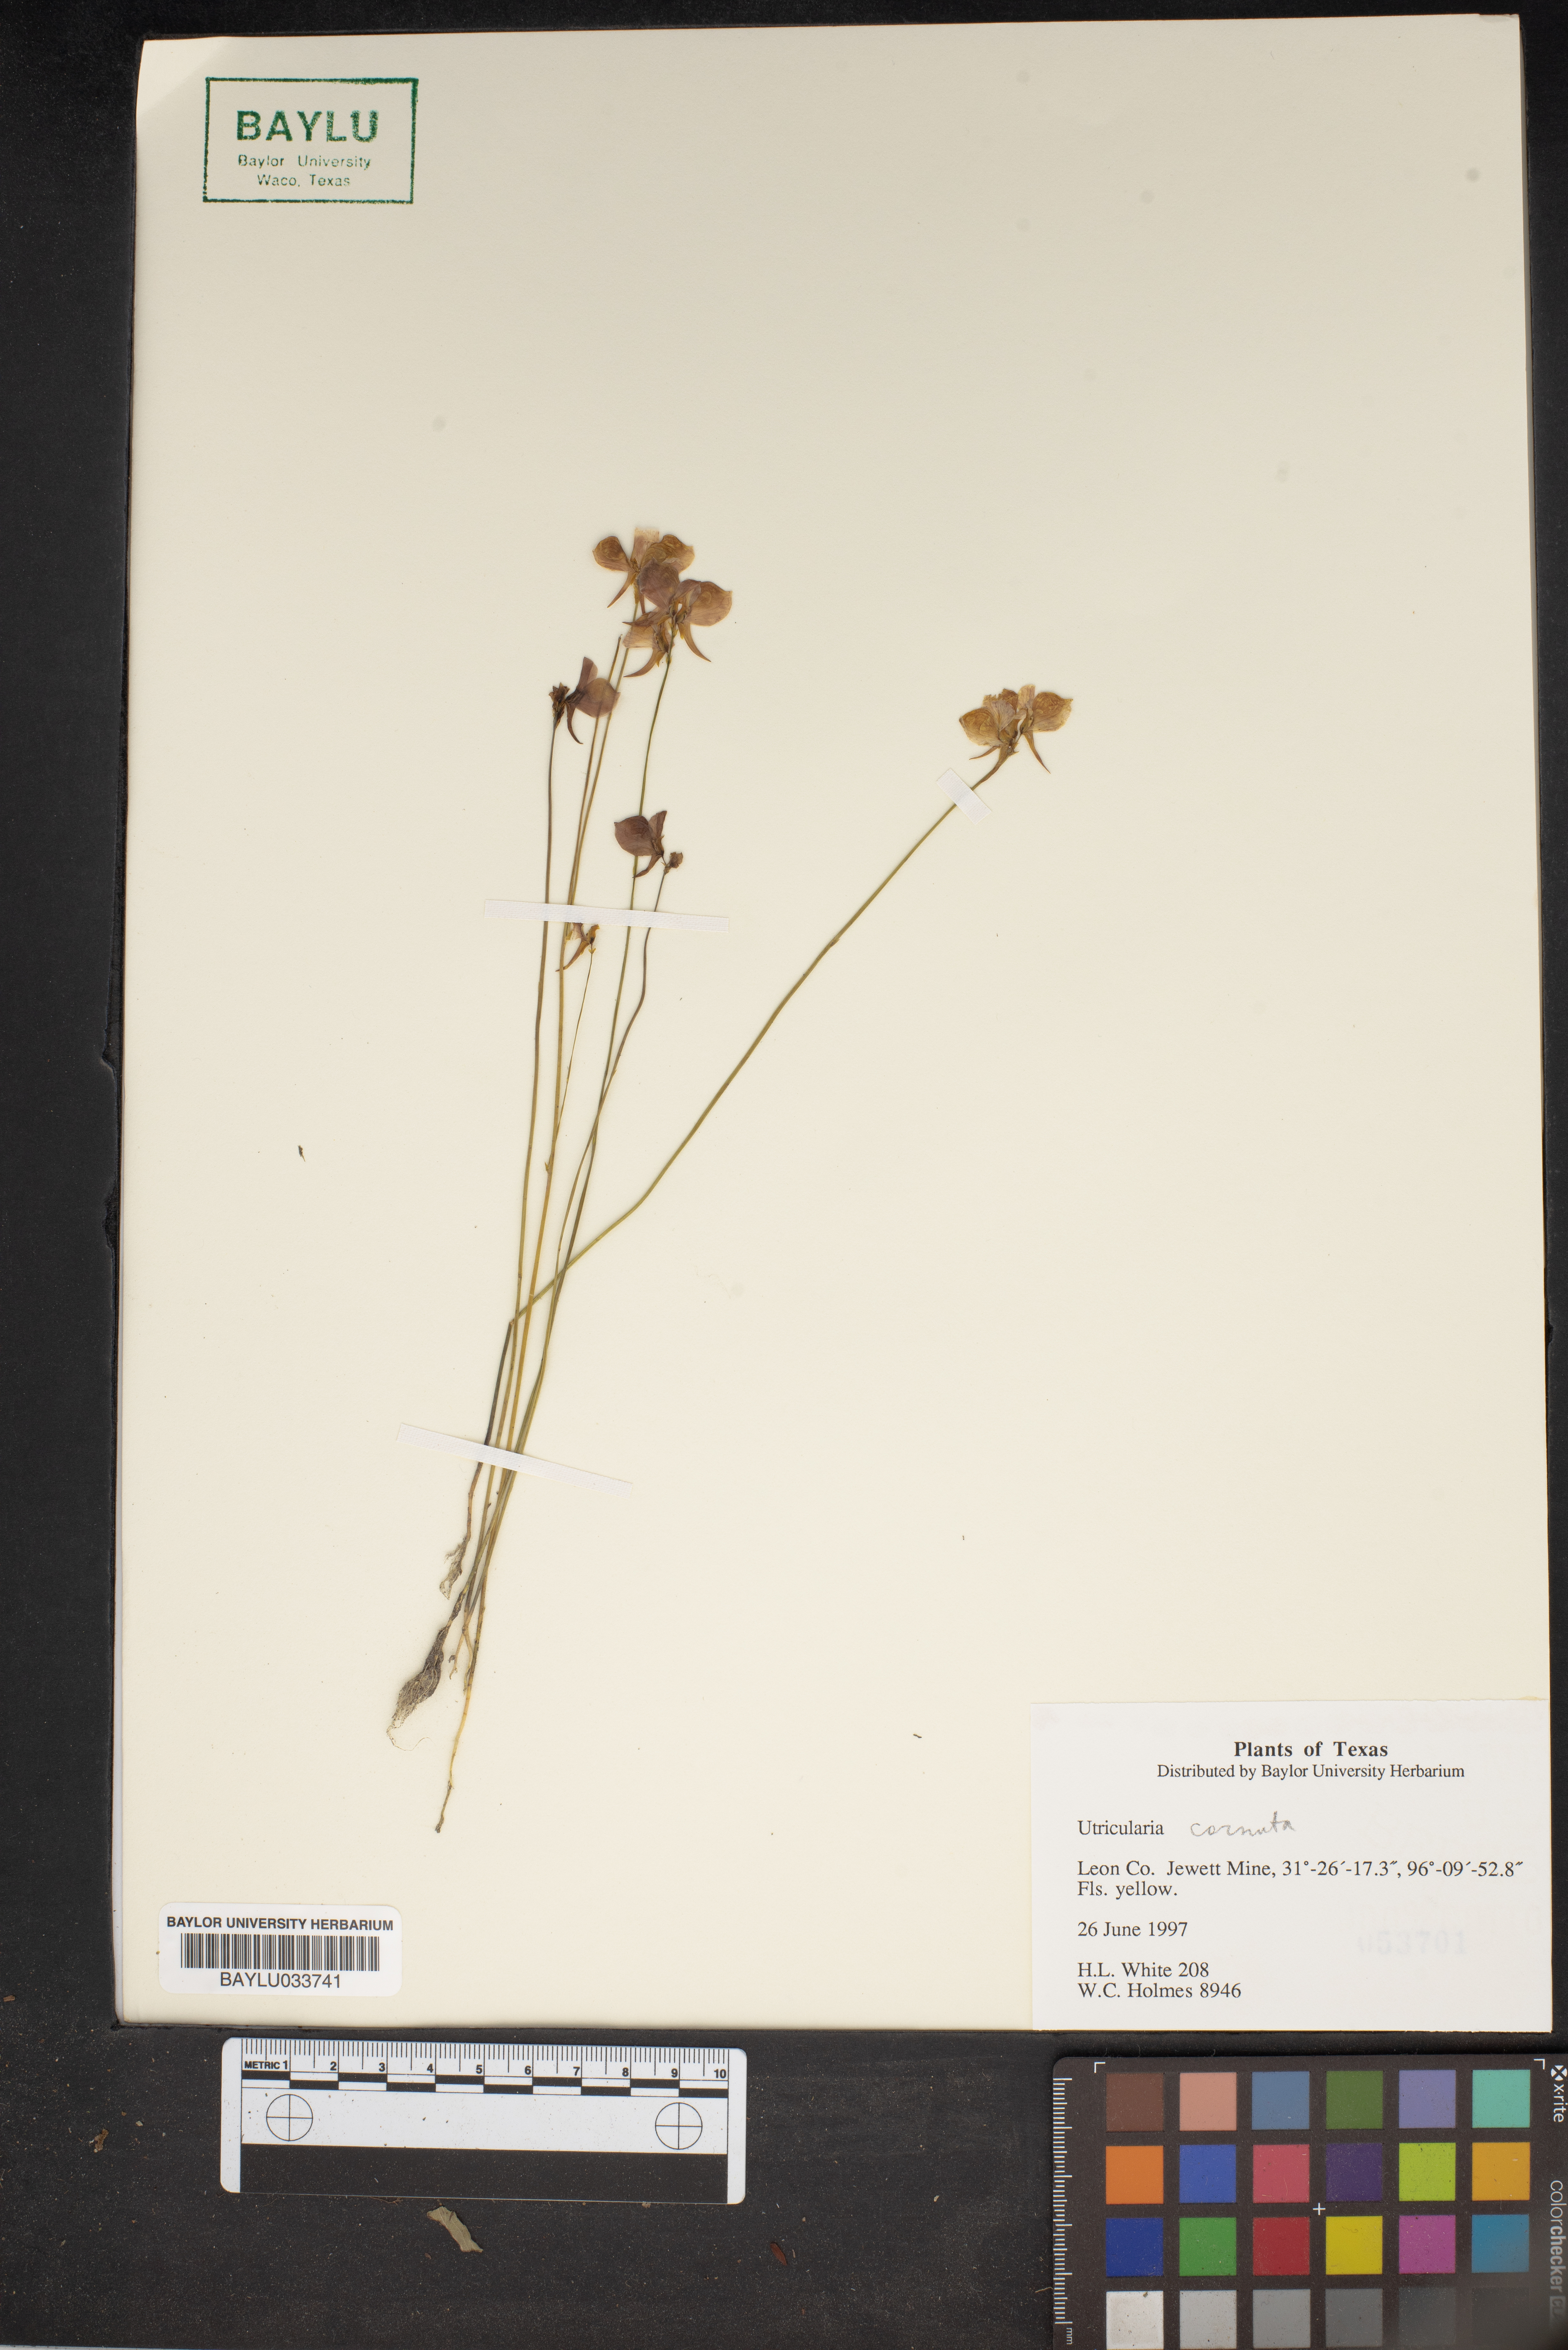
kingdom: Plantae
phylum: Tracheophyta
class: Magnoliopsida
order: Lamiales
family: Lentibulariaceae
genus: Utricularia
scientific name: Utricularia cornuta
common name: Horned bladderwort
